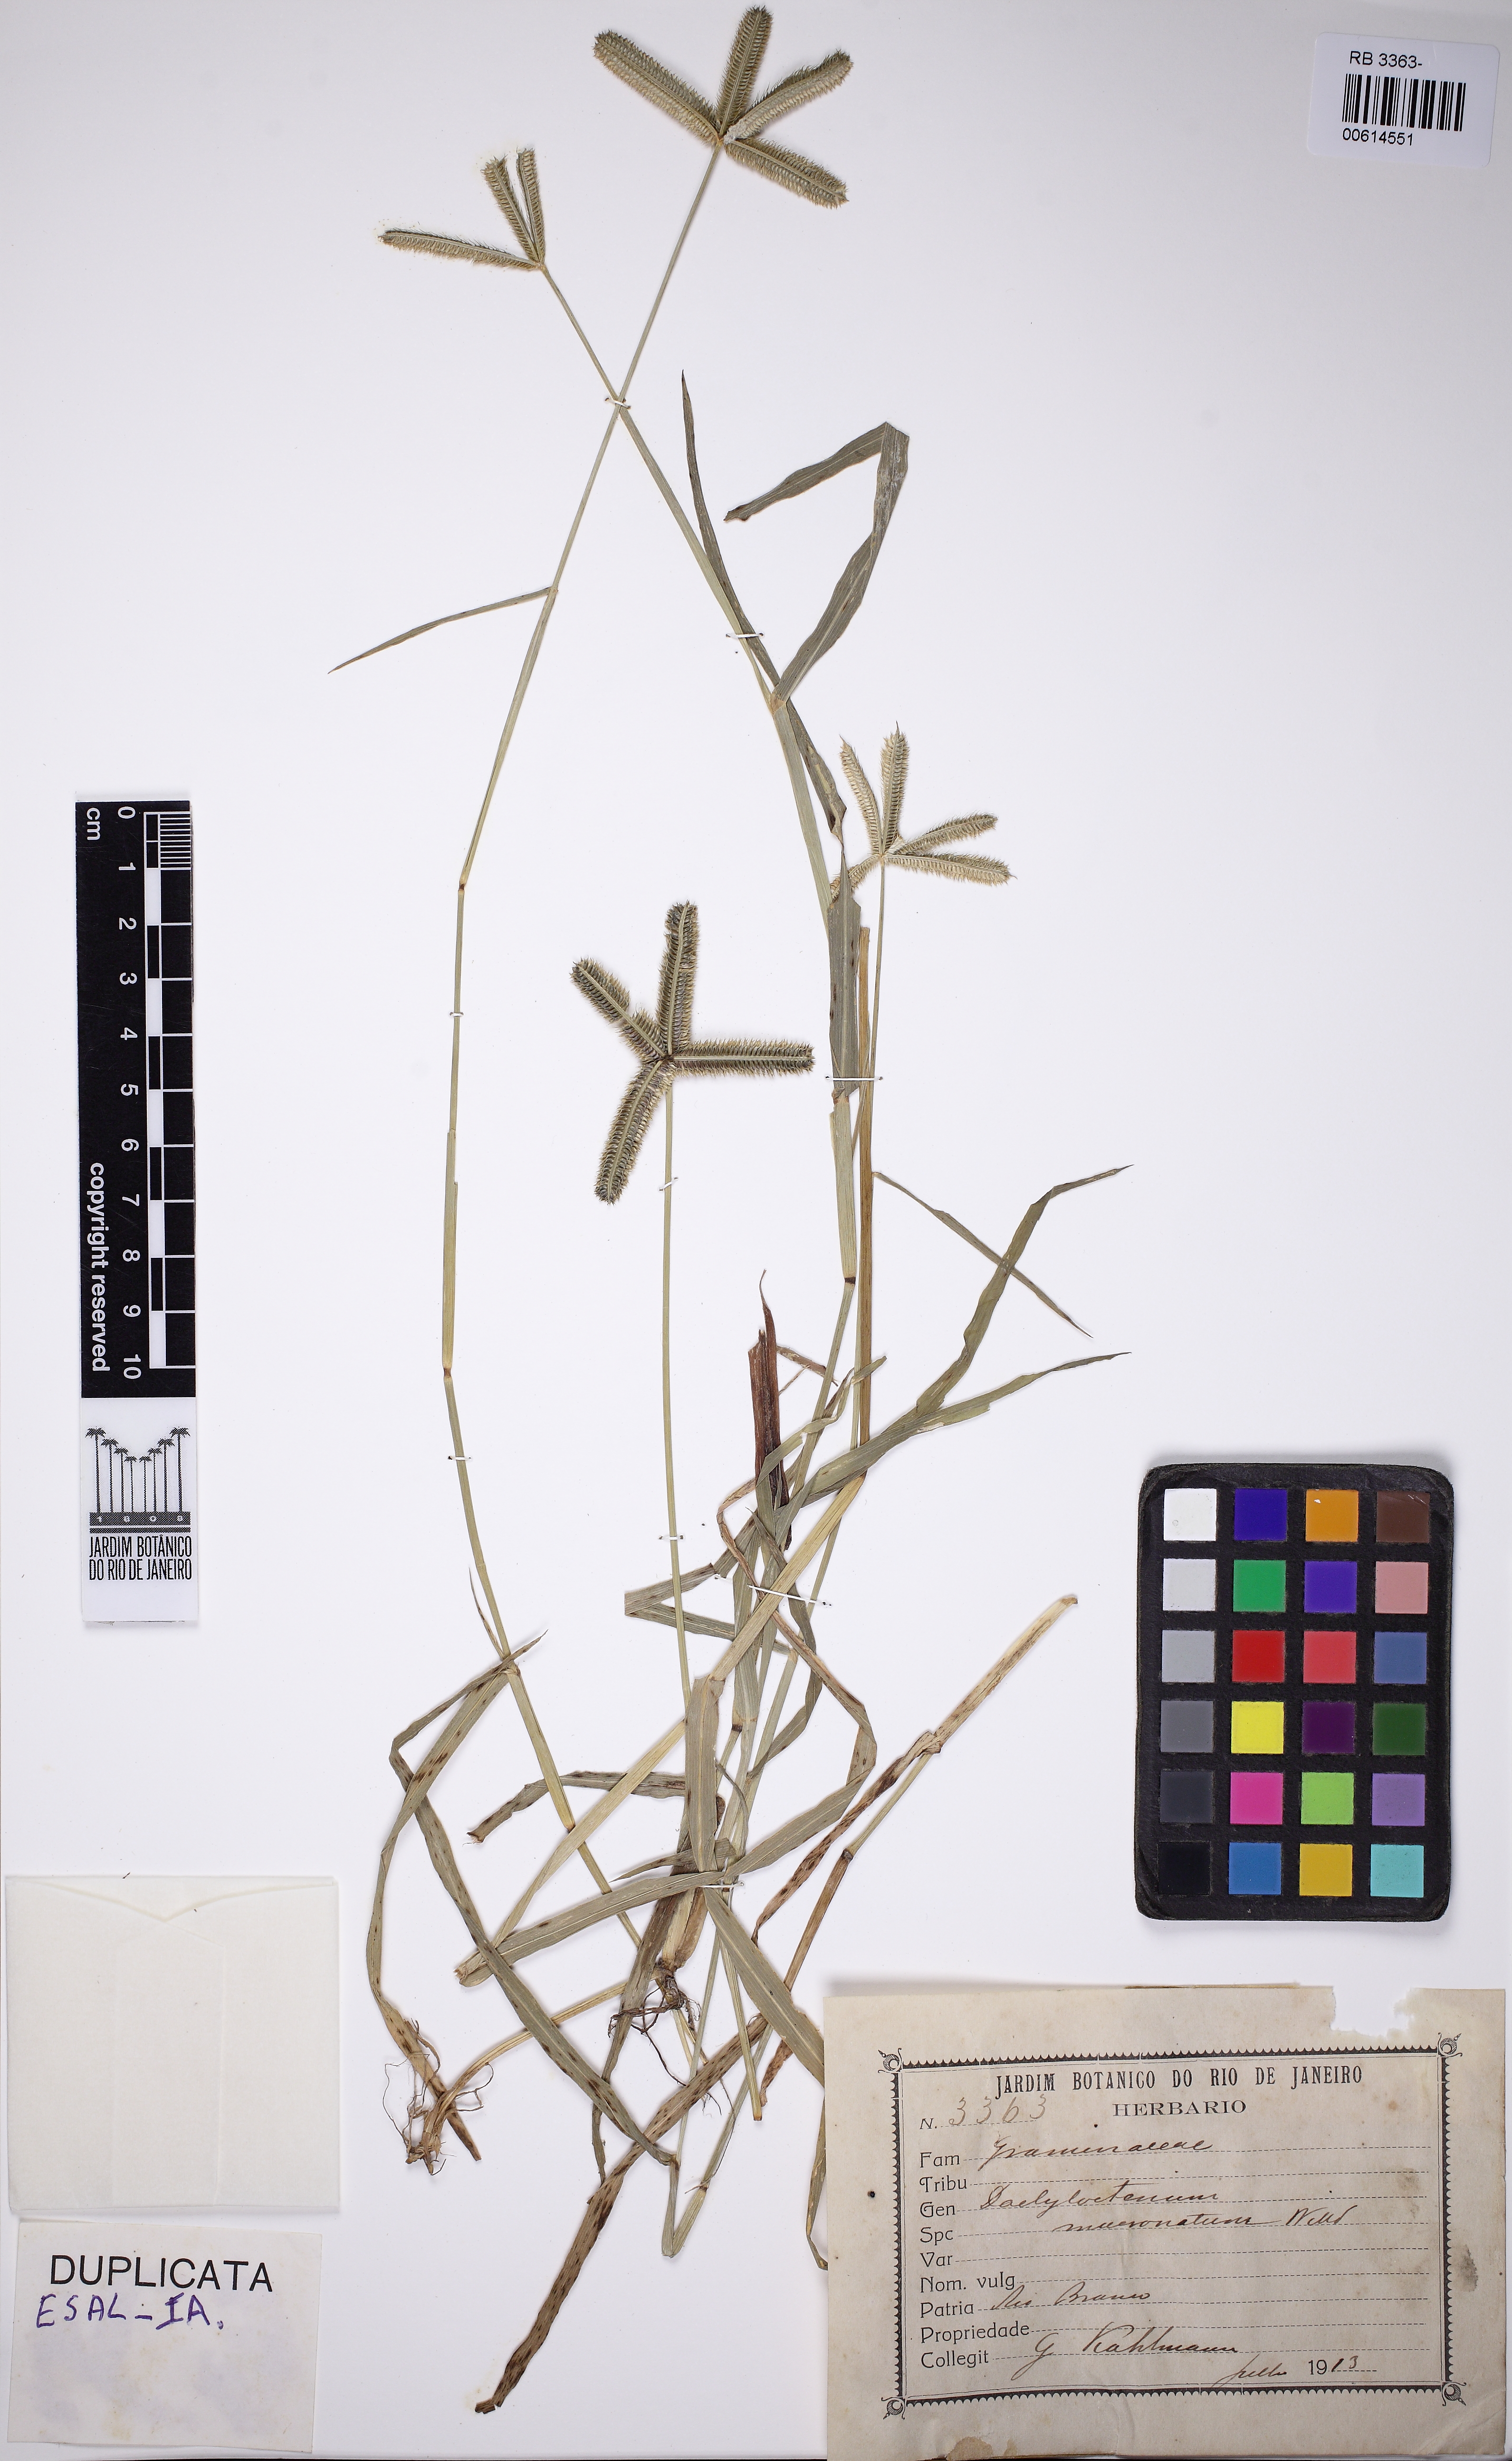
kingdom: Plantae
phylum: Tracheophyta
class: Liliopsida
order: Poales
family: Poaceae
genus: Dactyloctenium
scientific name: Dactyloctenium
